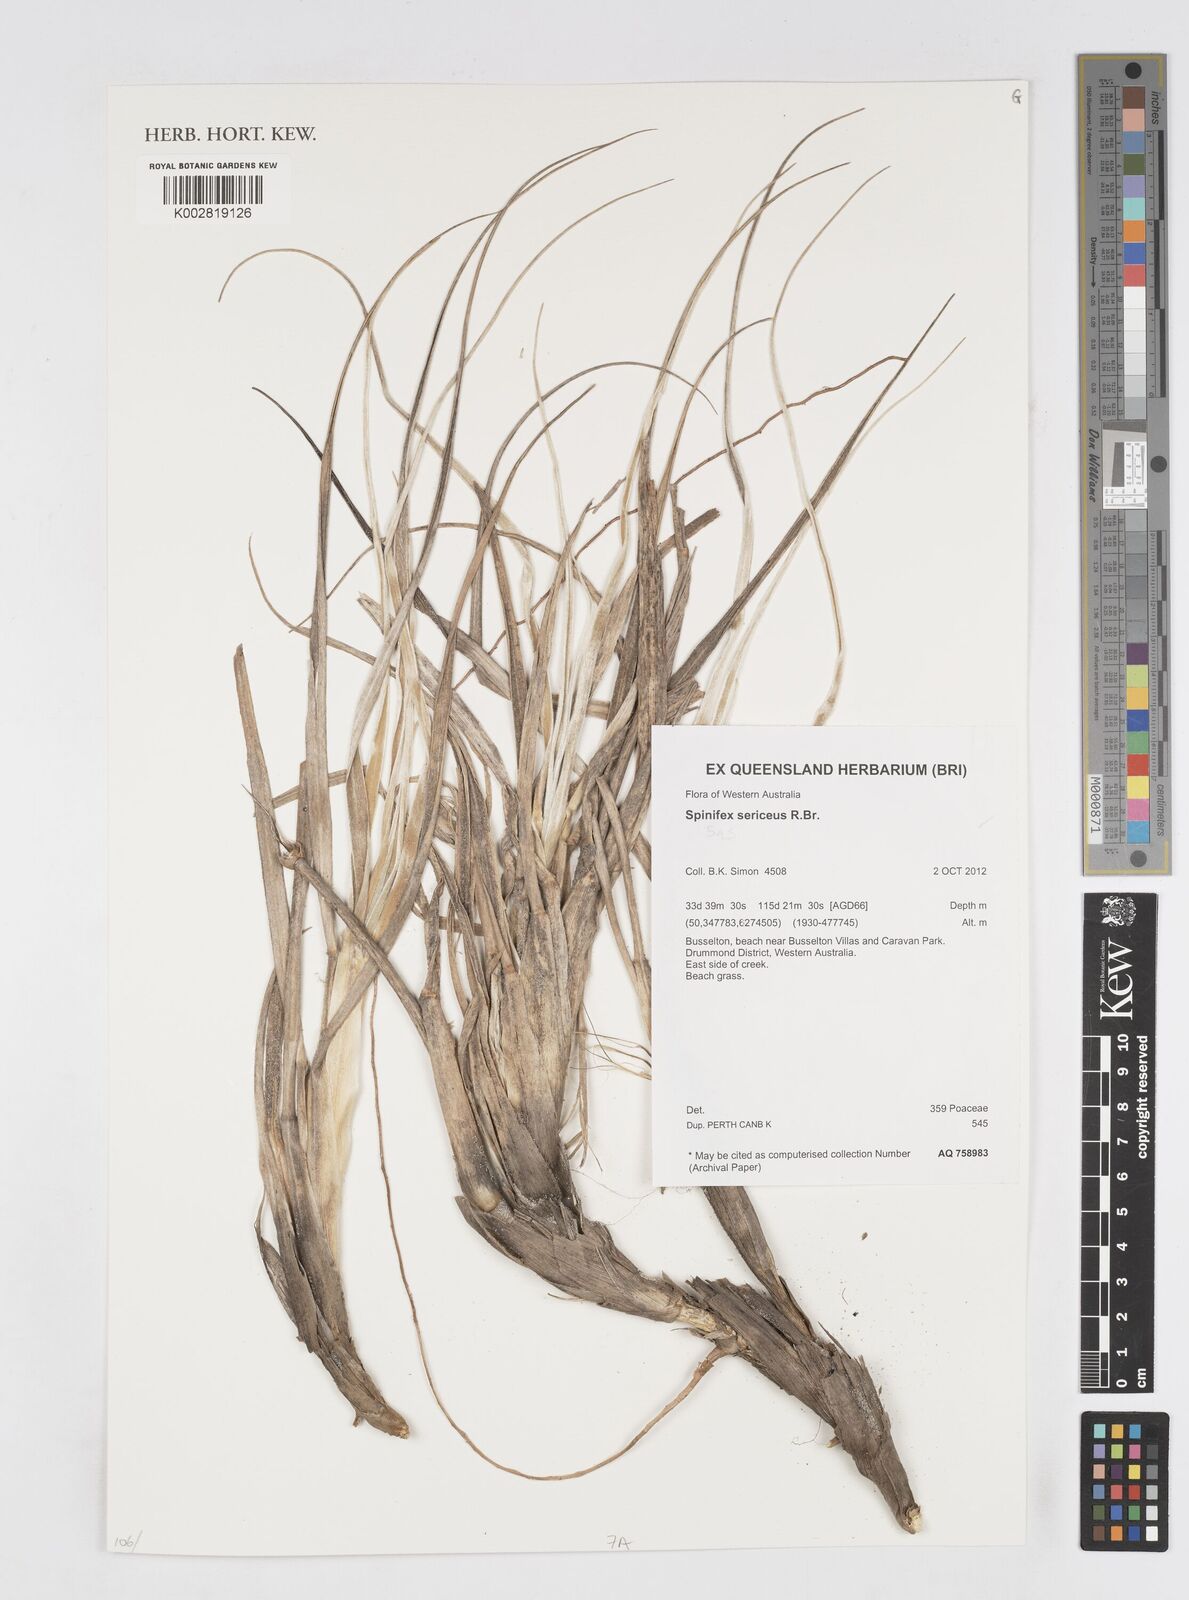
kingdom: Plantae
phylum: Tracheophyta
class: Liliopsida
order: Poales
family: Poaceae
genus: Spinifex
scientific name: Spinifex sericeus
